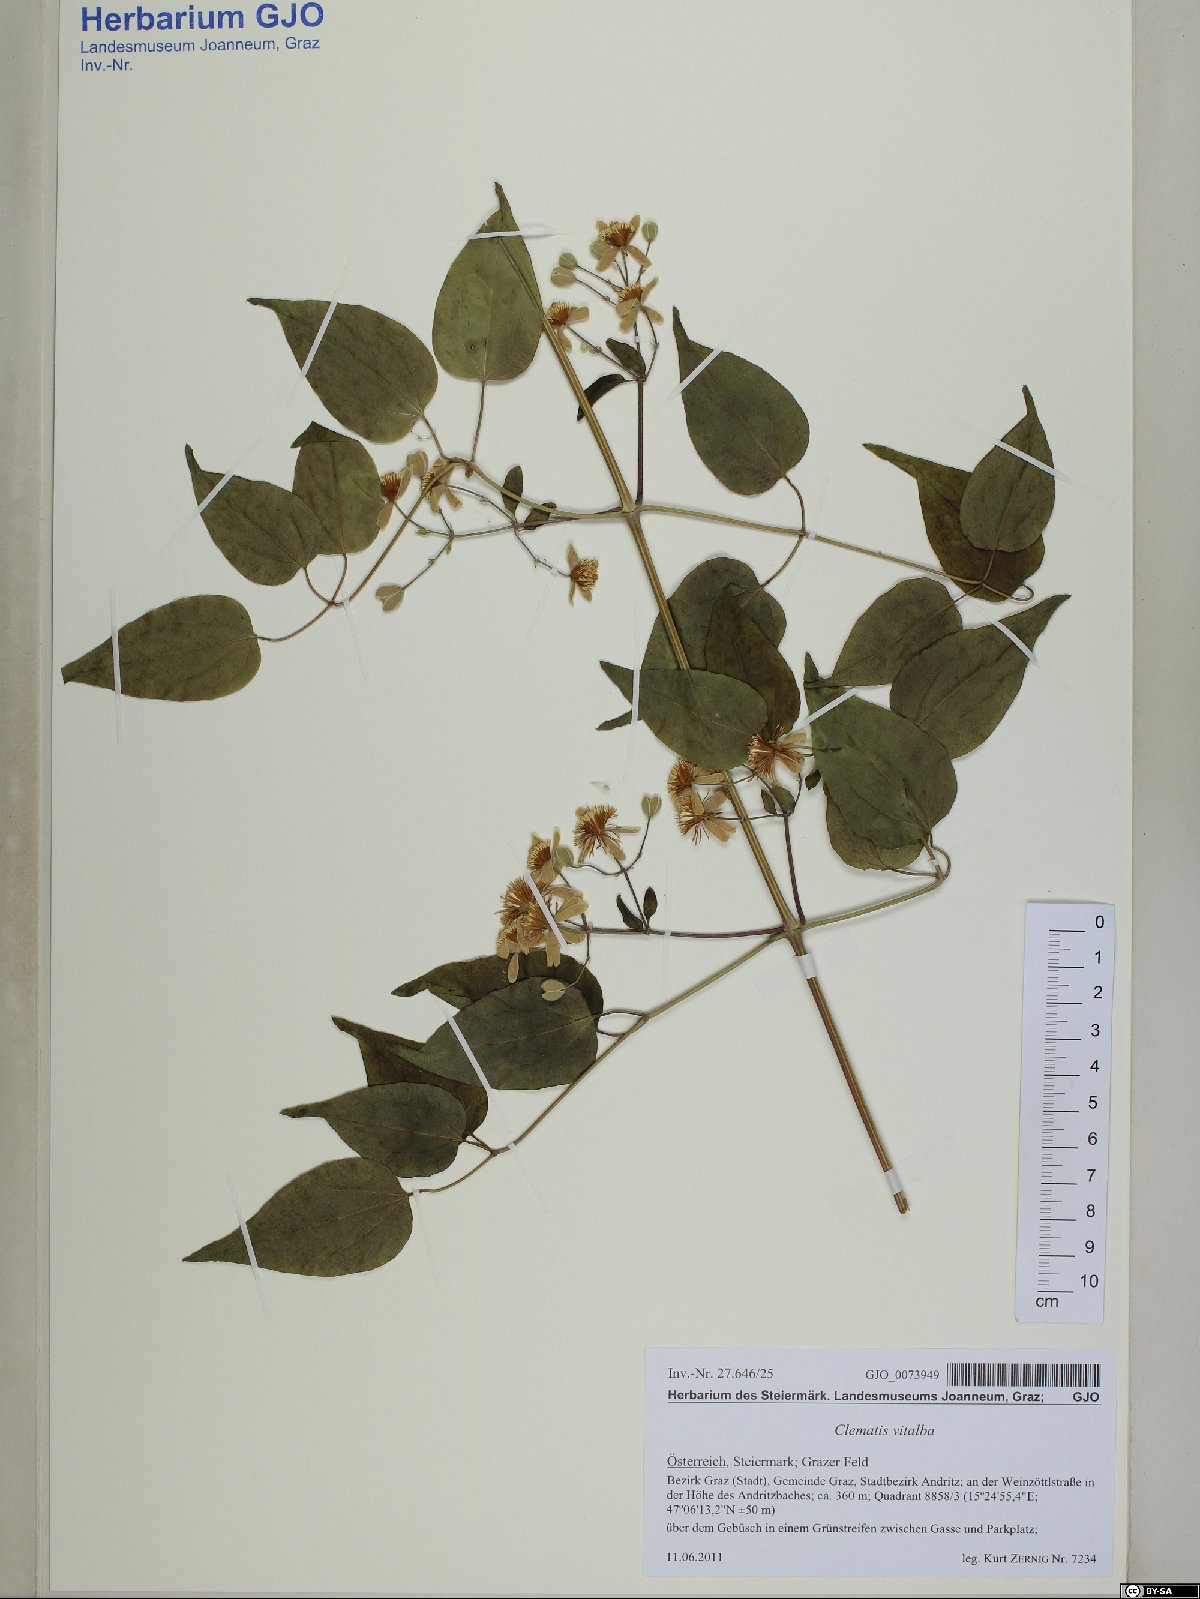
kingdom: Plantae
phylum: Tracheophyta
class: Magnoliopsida
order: Ranunculales
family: Ranunculaceae
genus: Clematis
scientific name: Clematis vitalba
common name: Evergreen clematis
